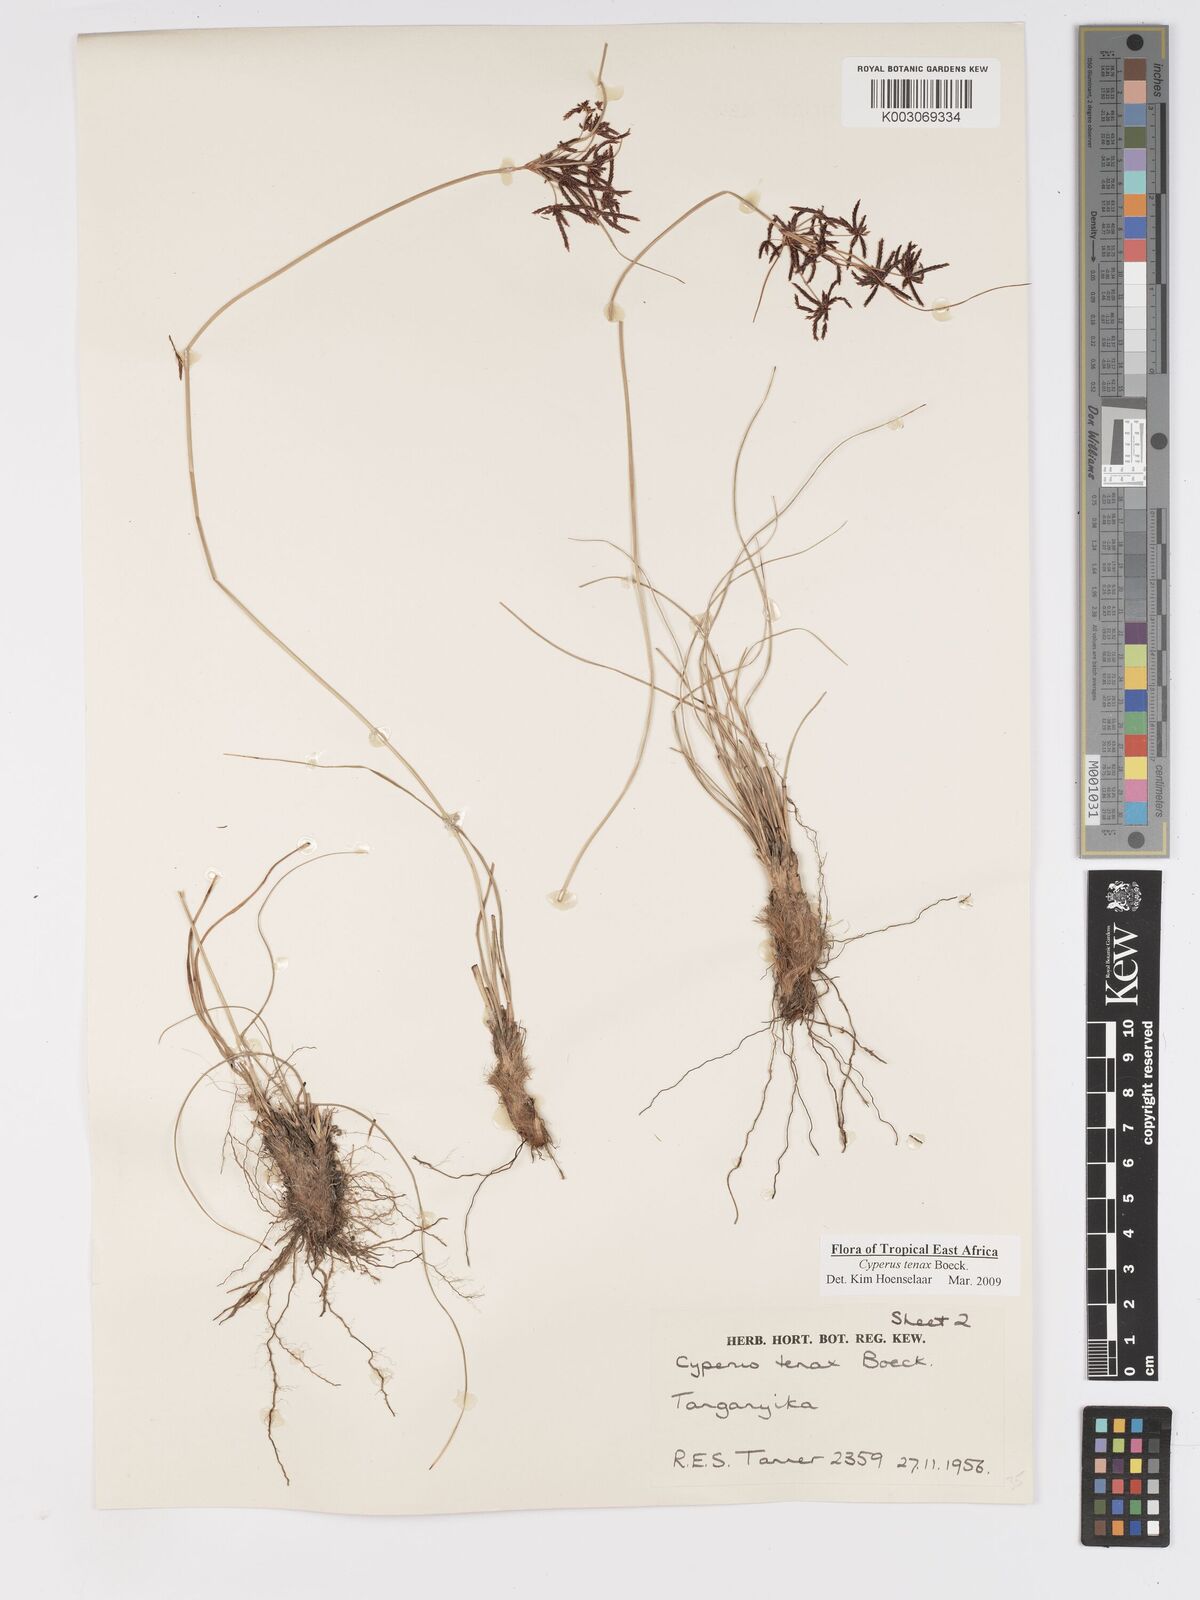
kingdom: Plantae
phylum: Tracheophyta
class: Liliopsida
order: Poales
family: Cyperaceae
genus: Cyperus
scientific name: Cyperus tenax
